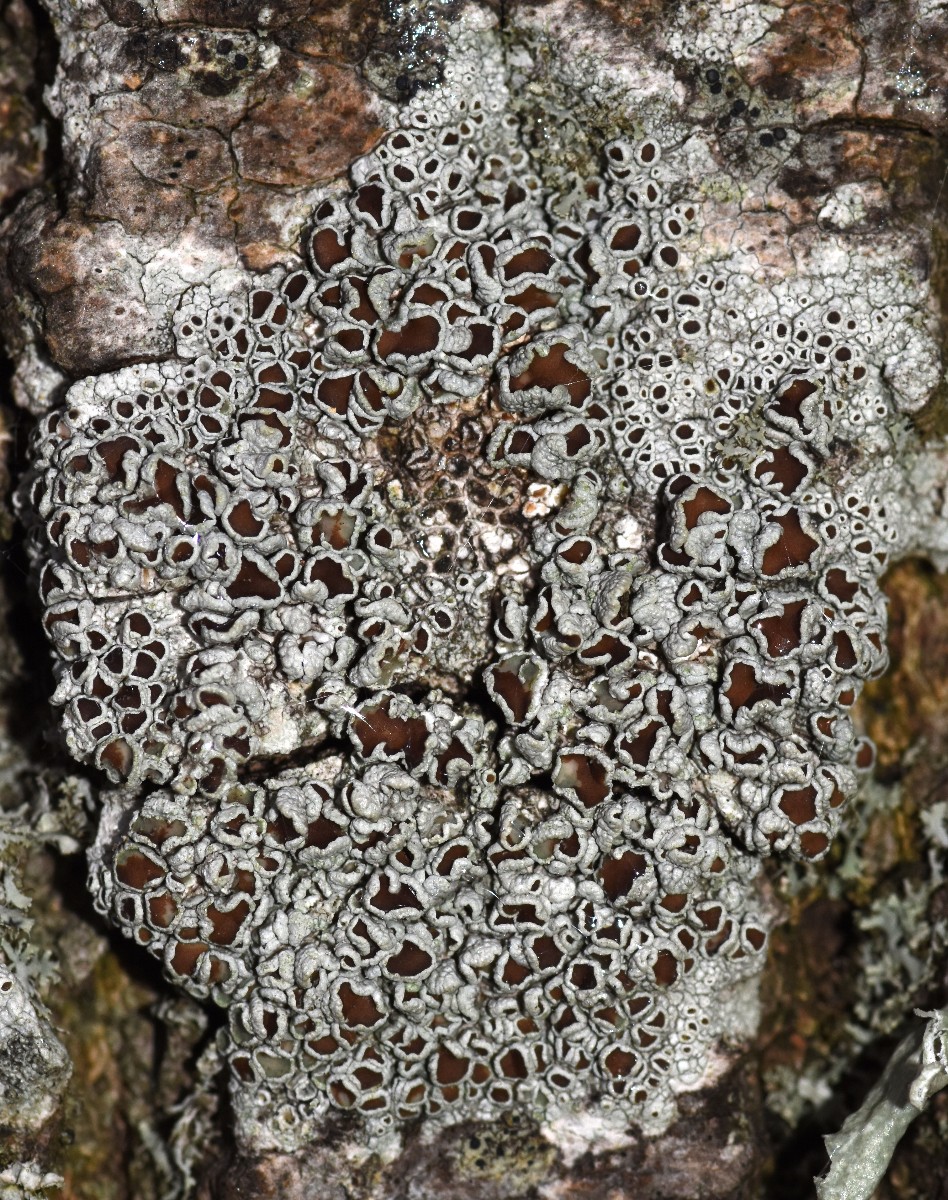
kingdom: Fungi
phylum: Ascomycota
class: Lecanoromycetes
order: Lecanorales
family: Lecanoraceae
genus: Lecanora
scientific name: Lecanora argentata
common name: sølv-kantskivelav
